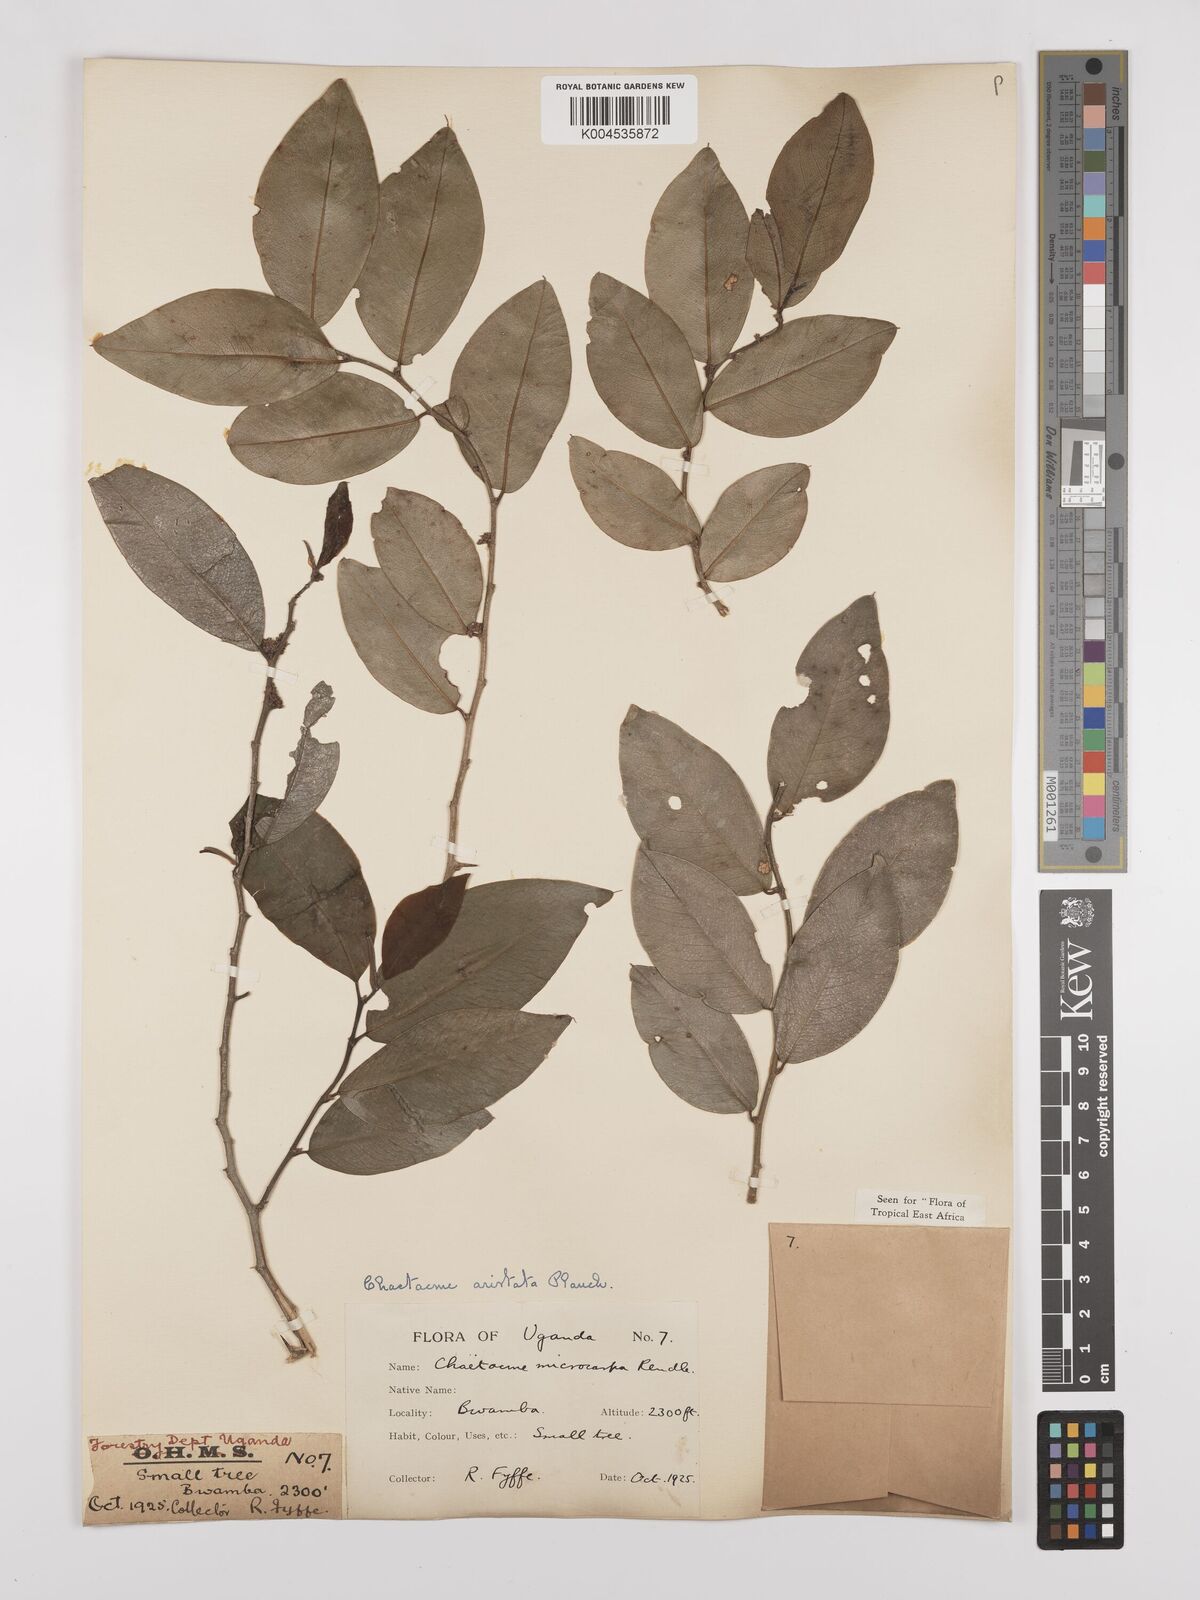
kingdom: Plantae
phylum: Tracheophyta
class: Magnoliopsida
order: Rosales
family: Cannabaceae
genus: Chaetachme
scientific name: Chaetachme aristata
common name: Thorny elm
